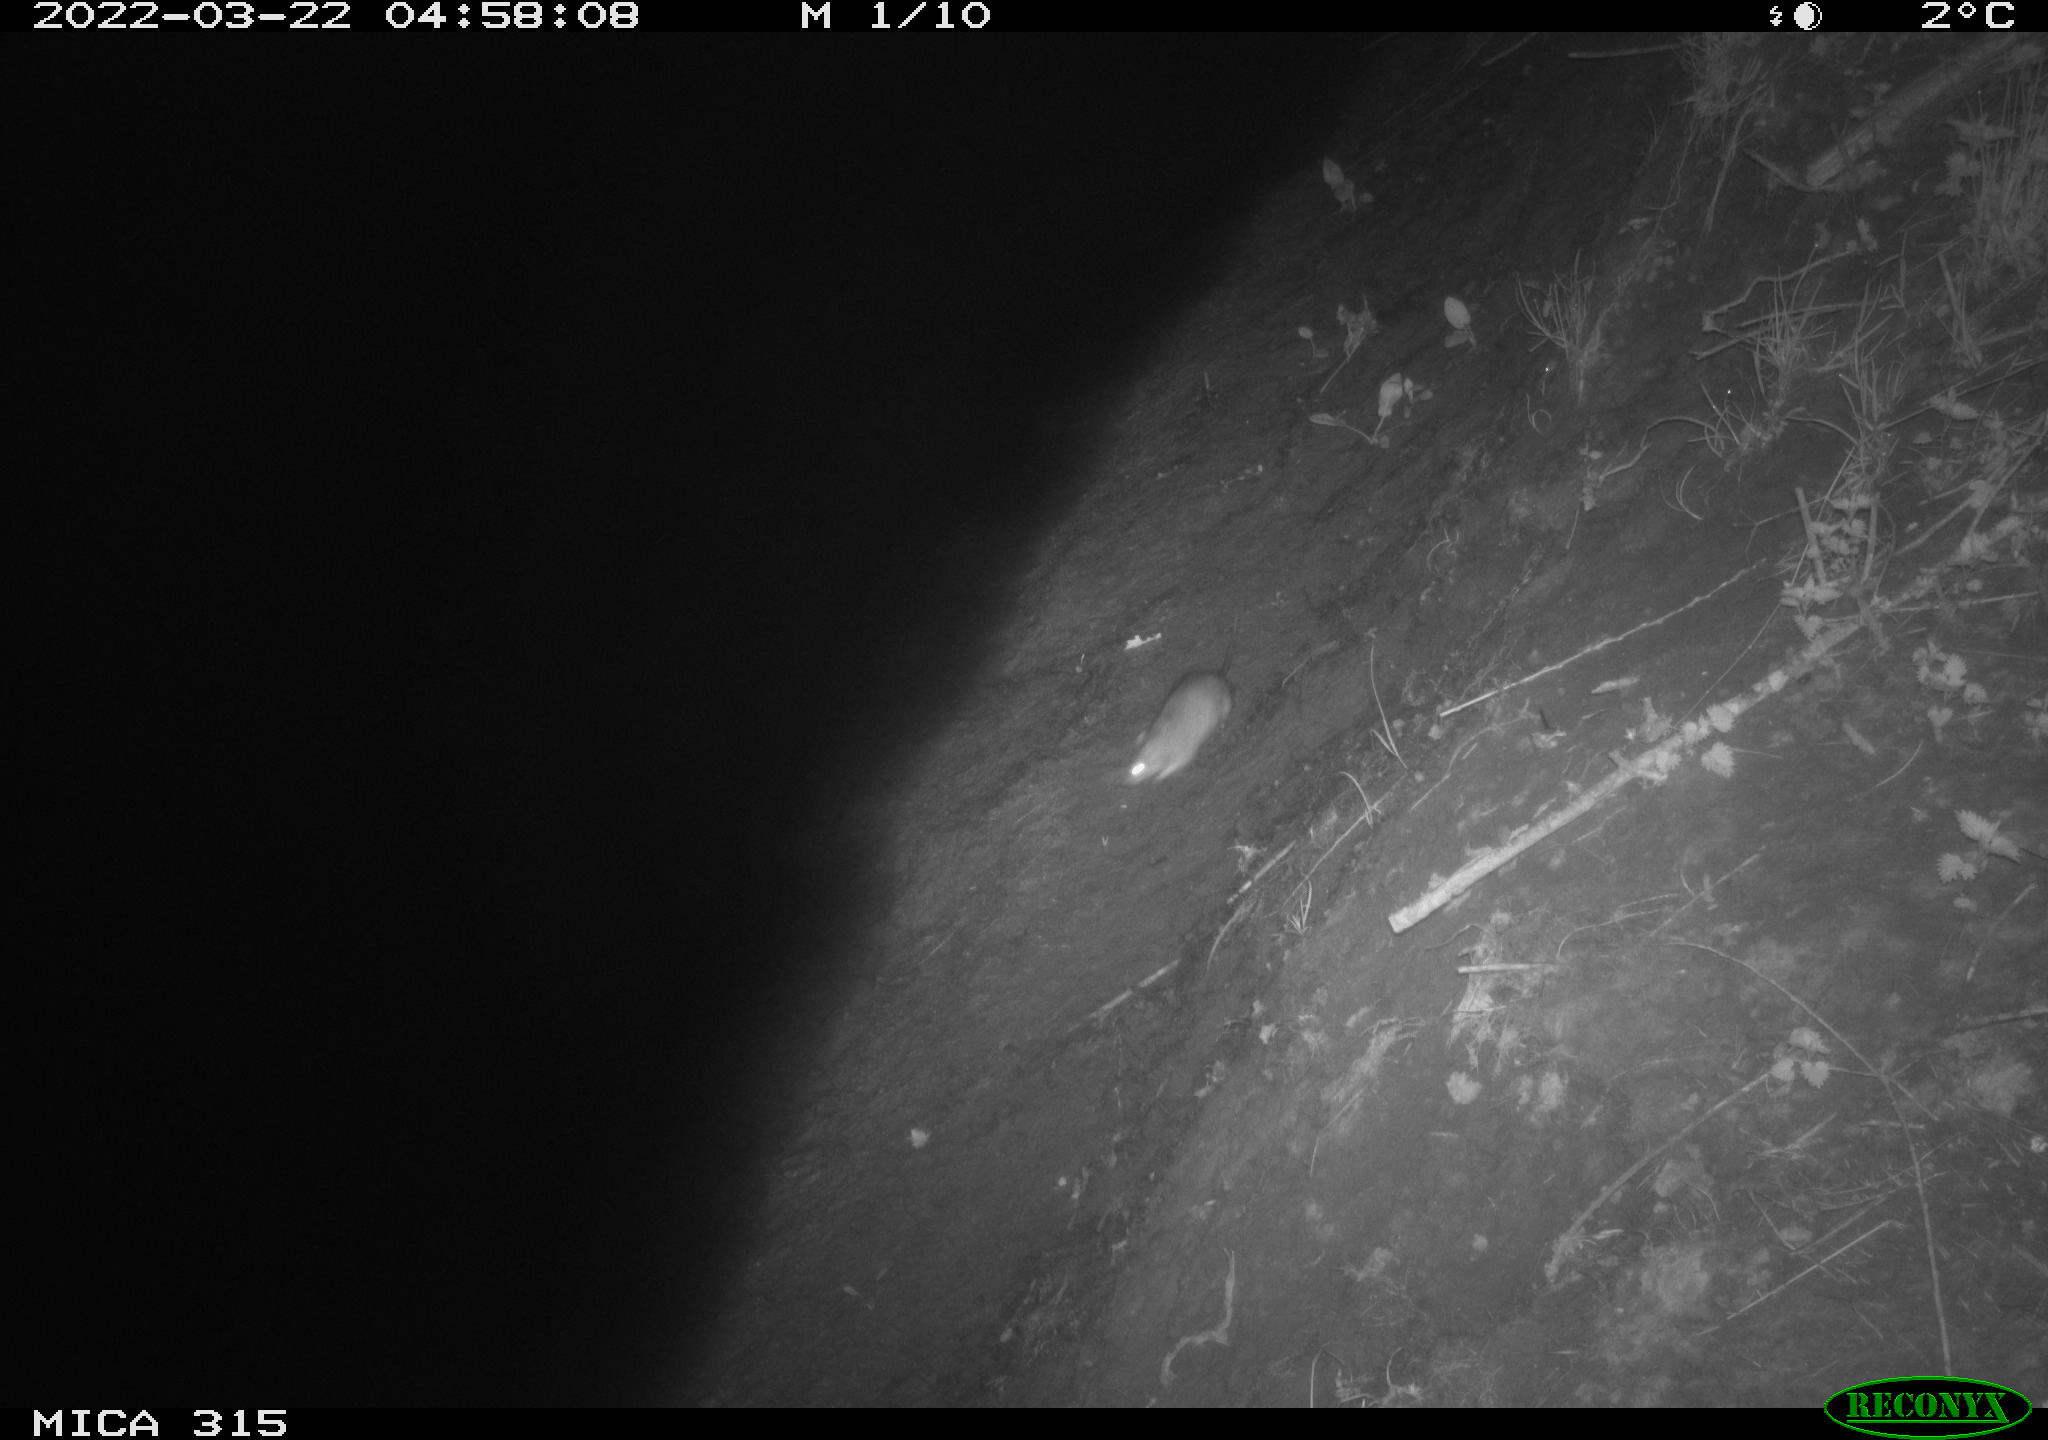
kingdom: Animalia
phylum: Chordata
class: Mammalia
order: Rodentia
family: Muridae
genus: Rattus
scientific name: Rattus norvegicus
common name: Brown rat
